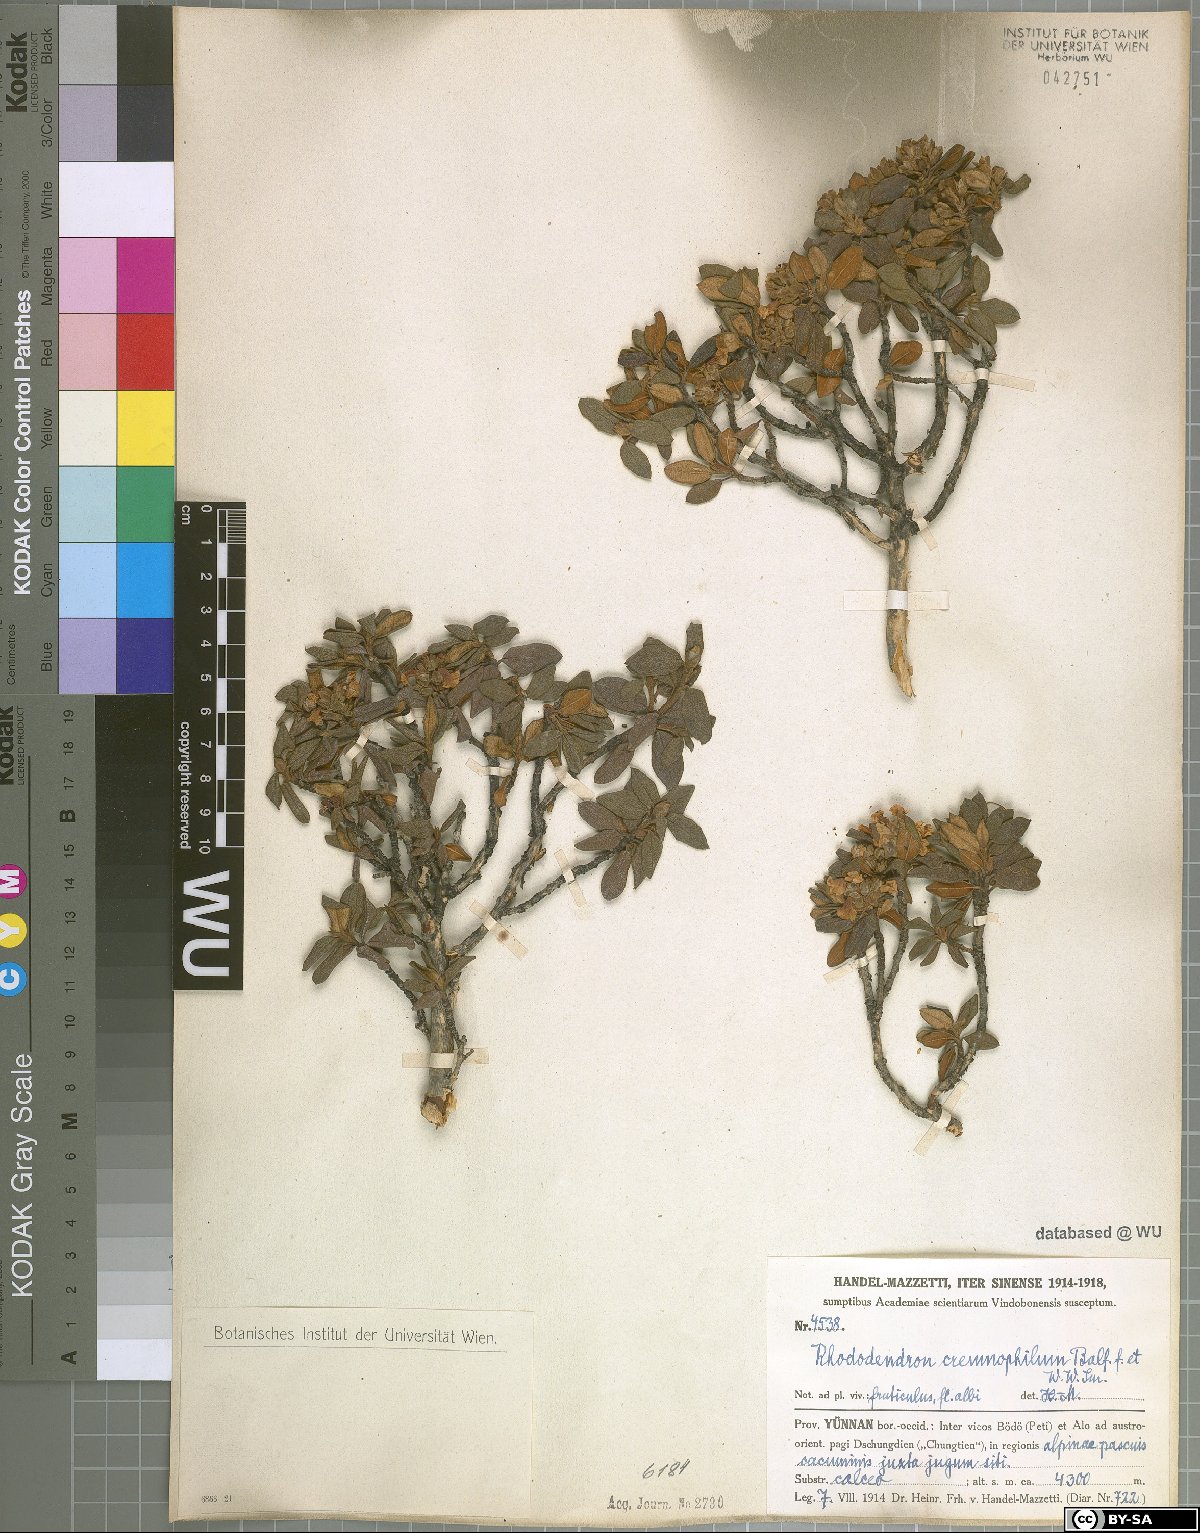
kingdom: Plantae
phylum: Tracheophyta
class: Magnoliopsida
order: Ericales
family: Ericaceae
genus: Rhododendron
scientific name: Rhododendron primuliflorum
